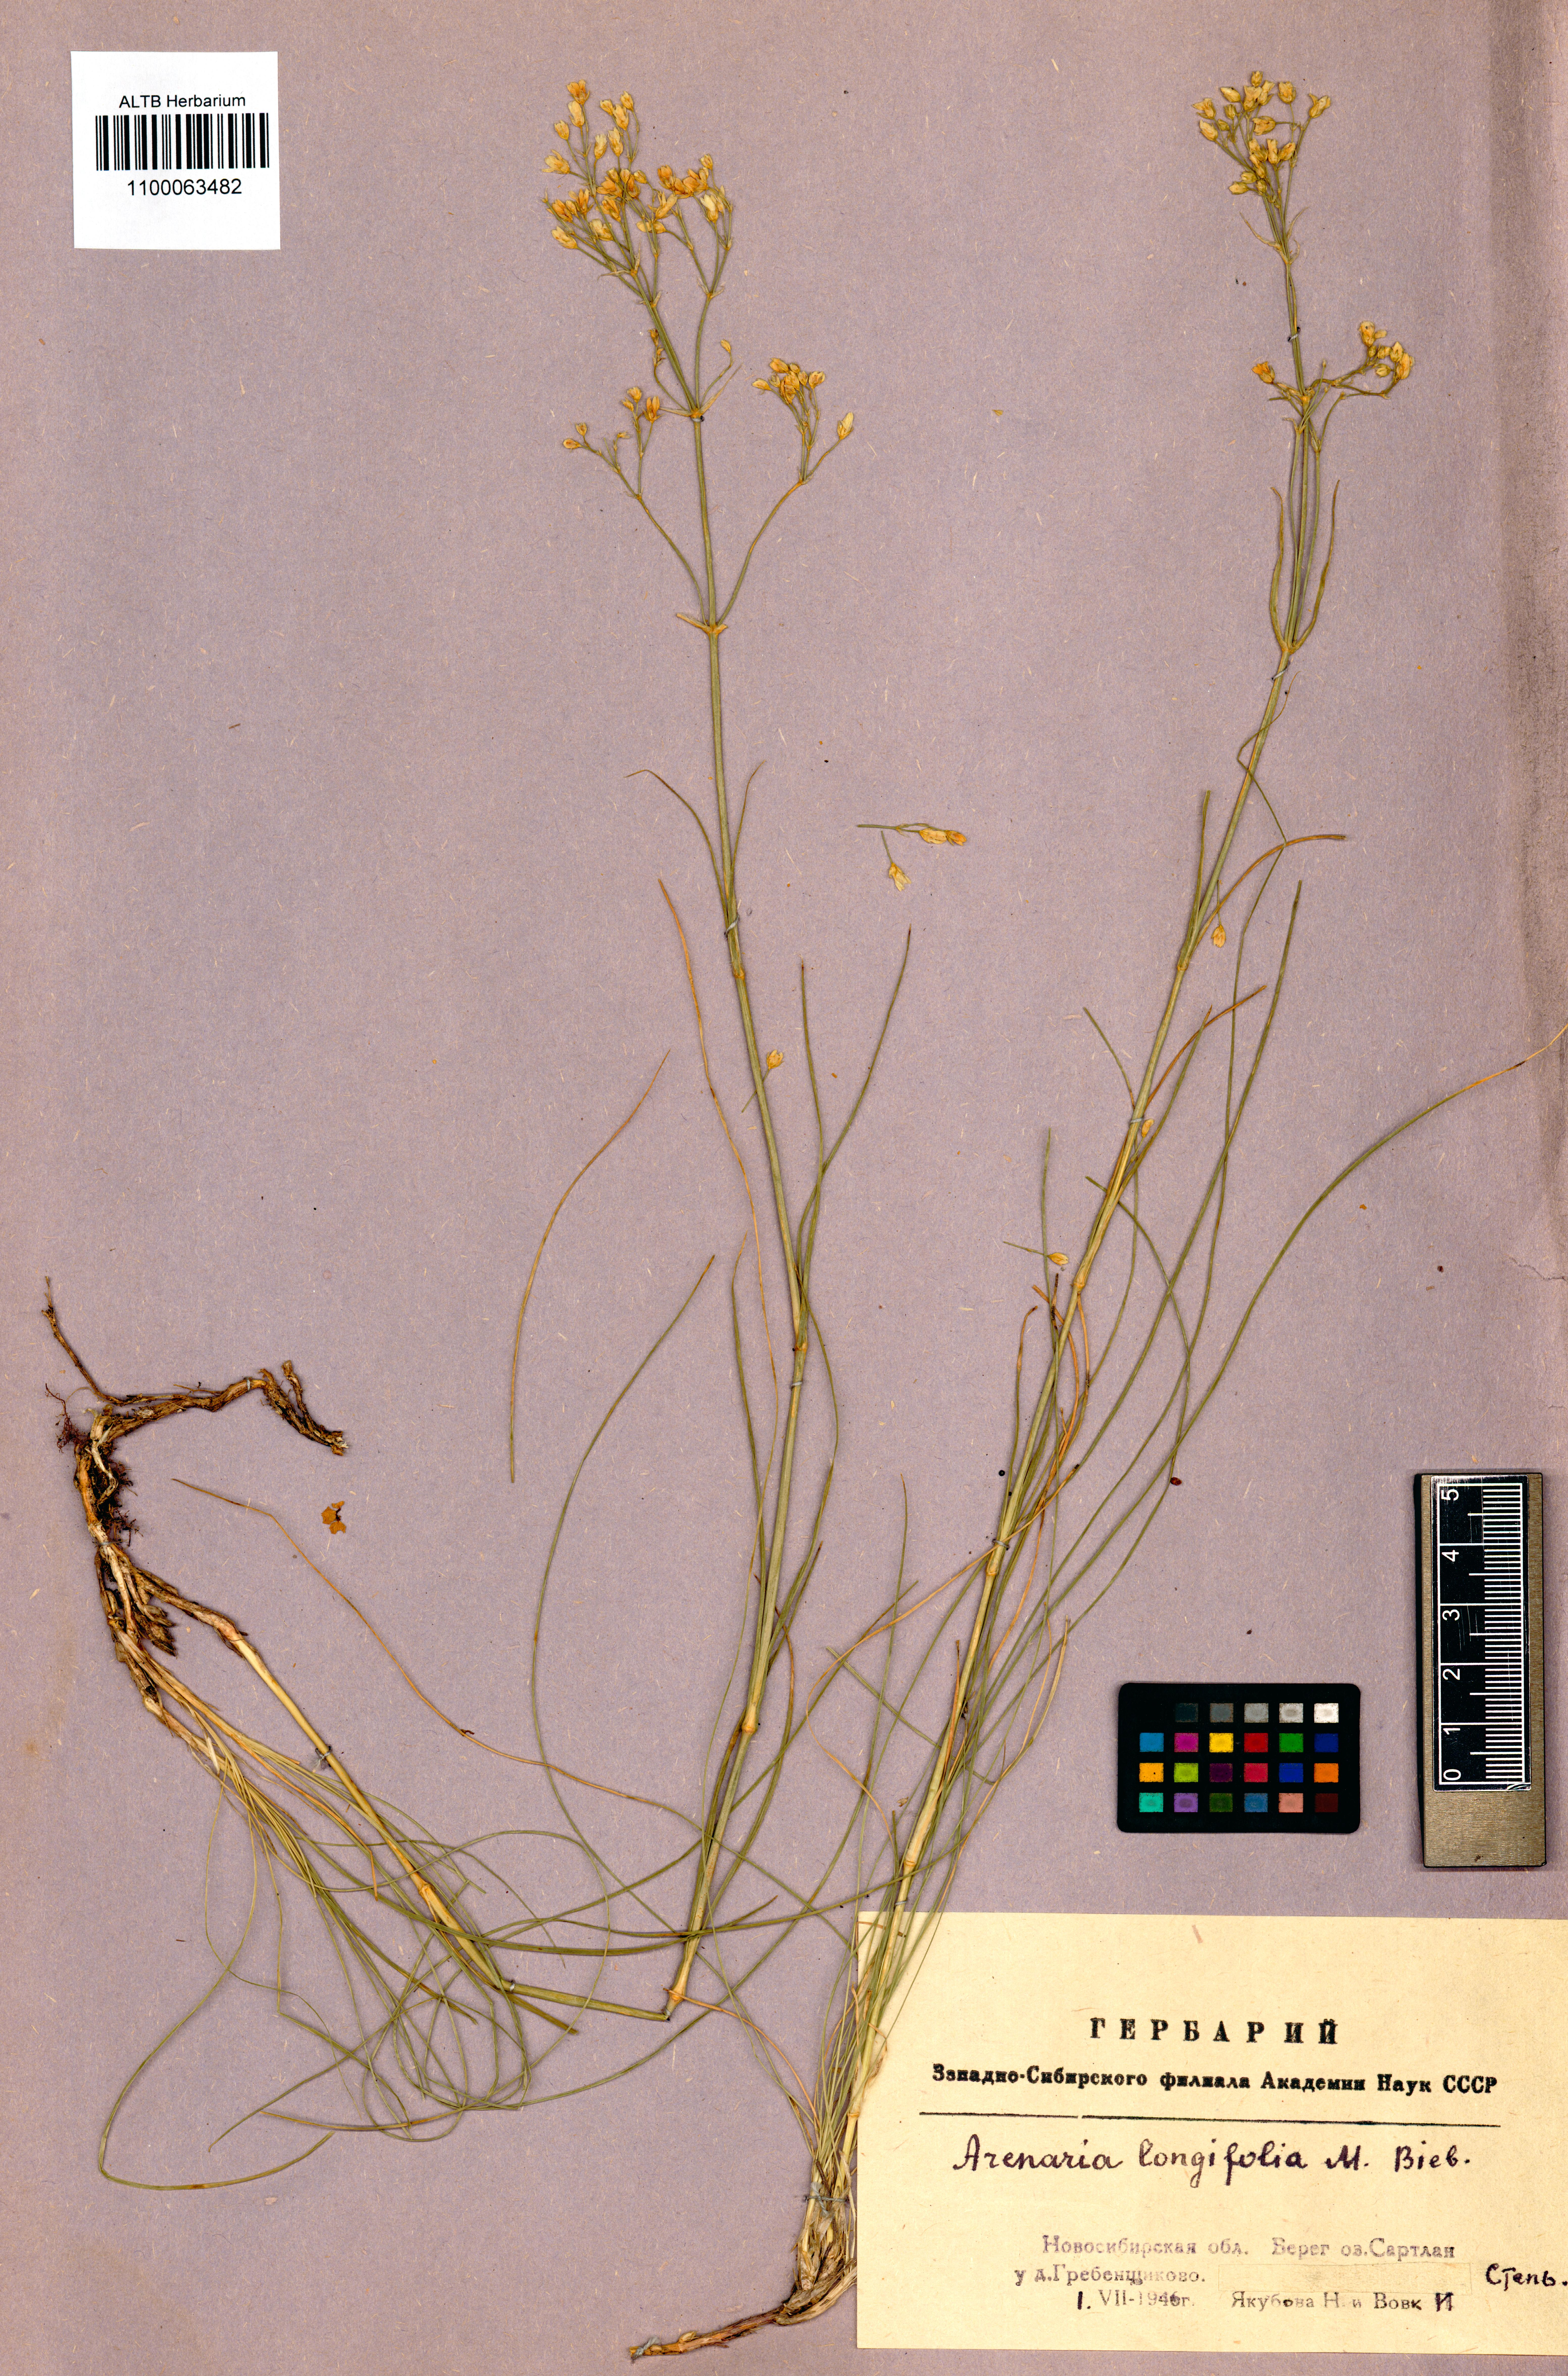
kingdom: Plantae
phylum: Tracheophyta
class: Magnoliopsida
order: Caryophyllales
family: Caryophyllaceae
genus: Eremogone
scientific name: Eremogone longifolia
